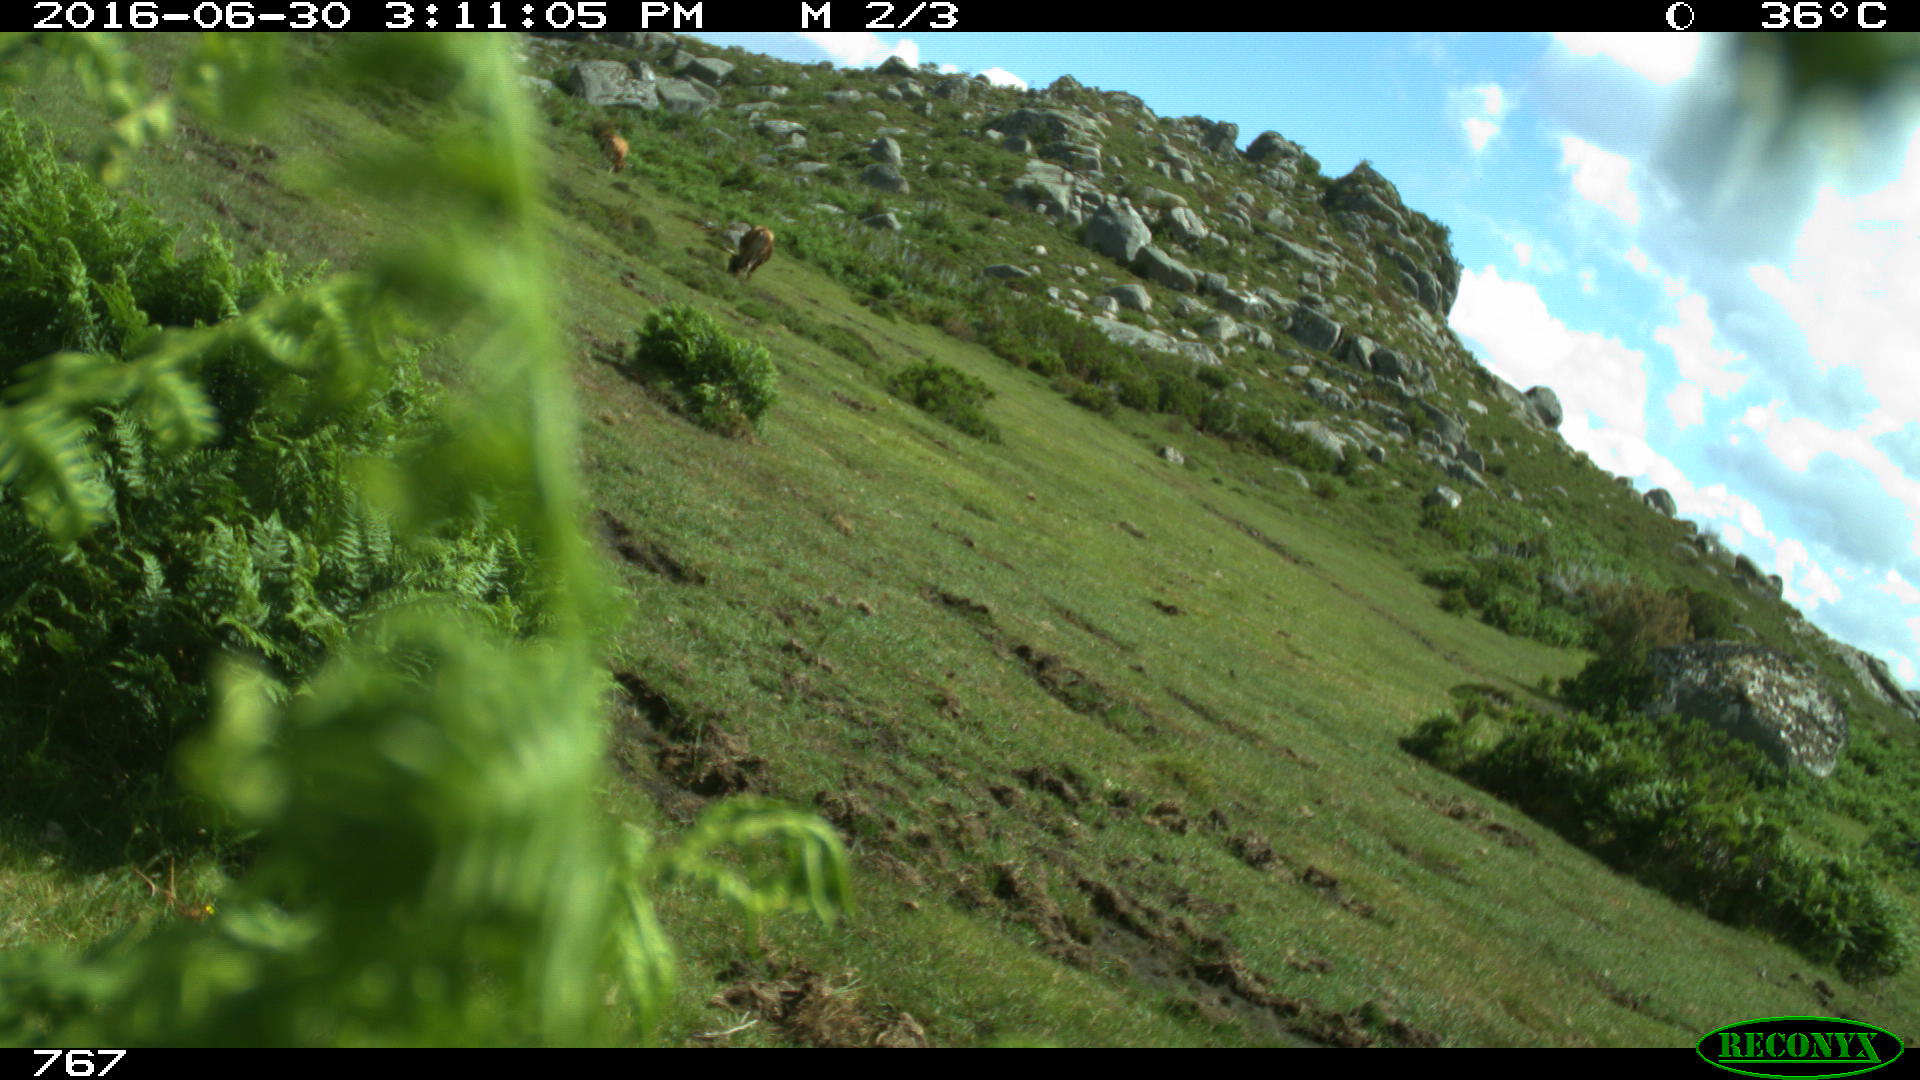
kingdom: Animalia
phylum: Chordata
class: Mammalia
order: Artiodactyla
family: Bovidae
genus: Bos
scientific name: Bos taurus
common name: Domesticated cattle
